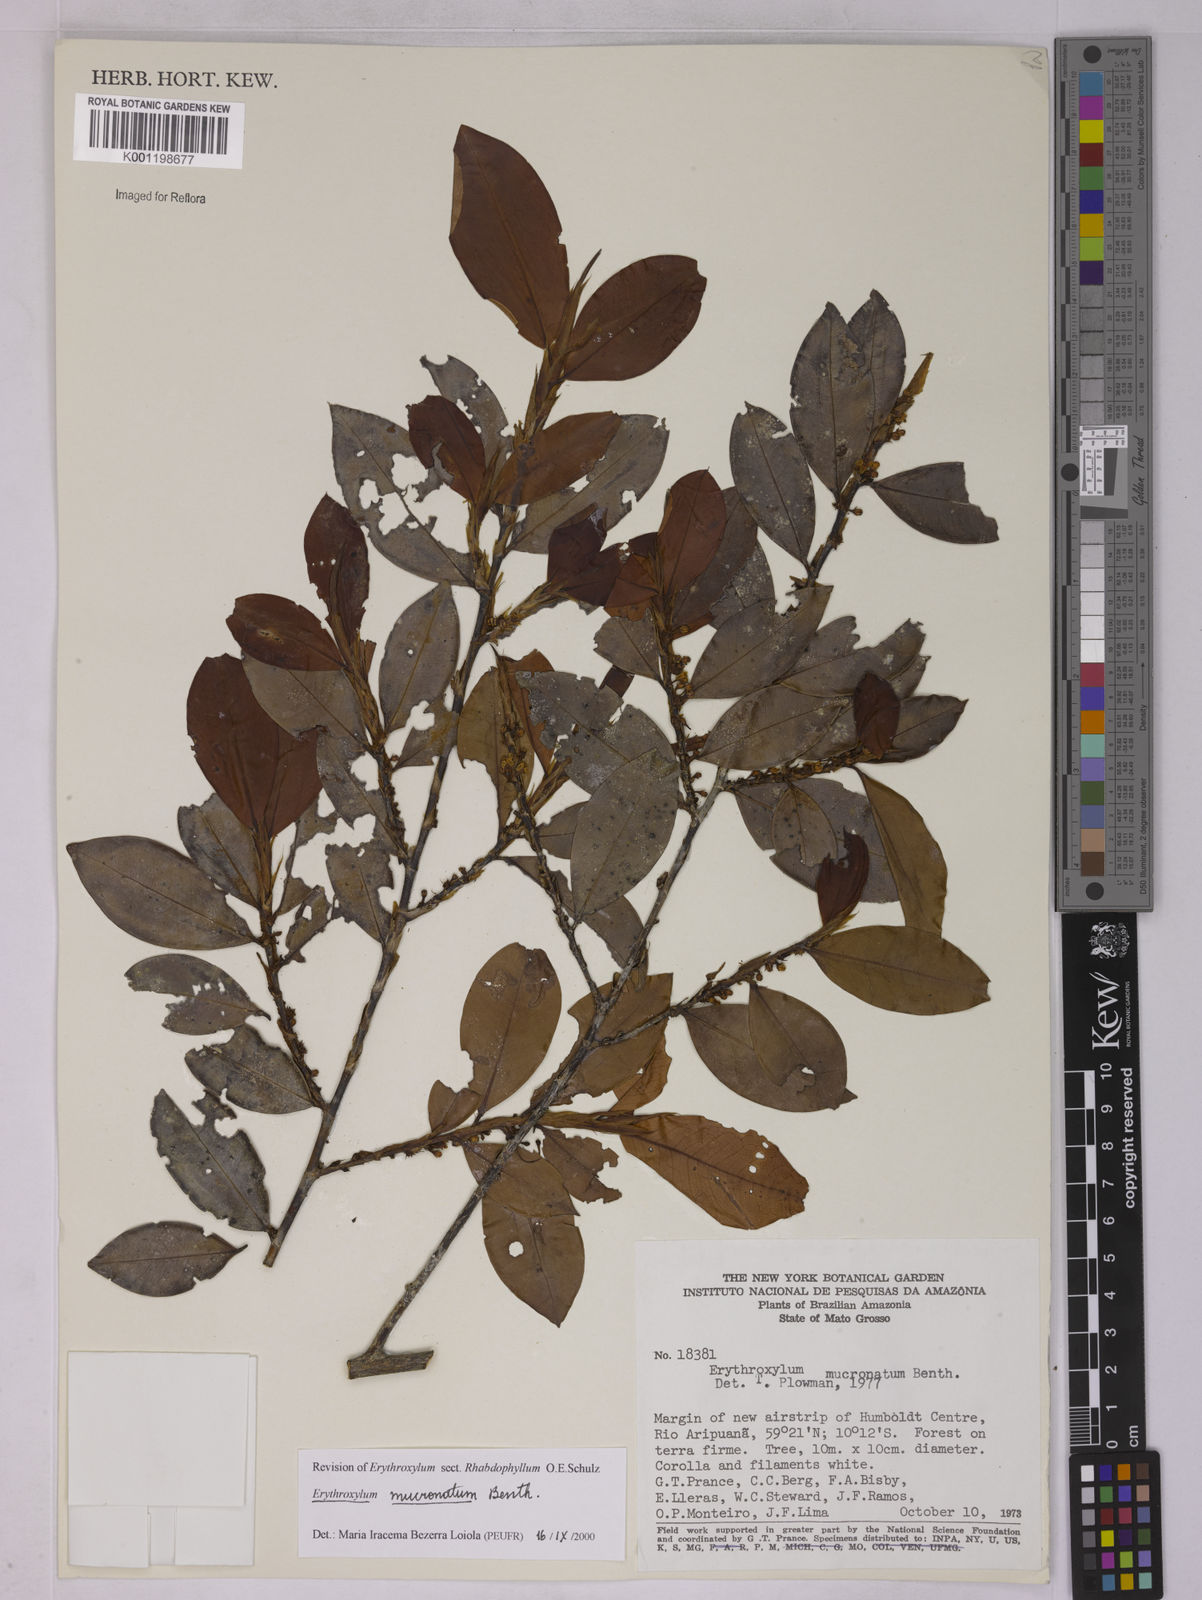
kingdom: Plantae
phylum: Tracheophyta
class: Magnoliopsida
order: Malpighiales
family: Erythroxylaceae
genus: Erythroxylum
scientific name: Erythroxylum mucronatum
